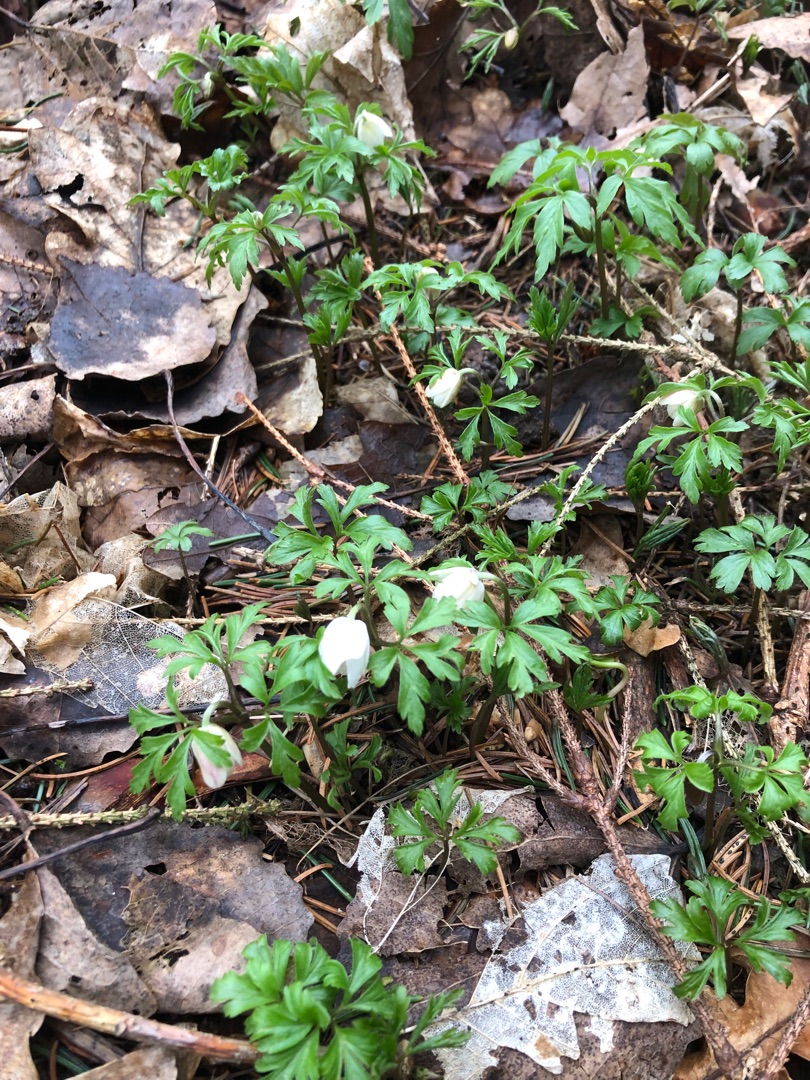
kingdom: Plantae
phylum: Tracheophyta
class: Magnoliopsida
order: Ranunculales
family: Ranunculaceae
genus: Anemone
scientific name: Anemone nemorosa
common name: Hvid anemone
